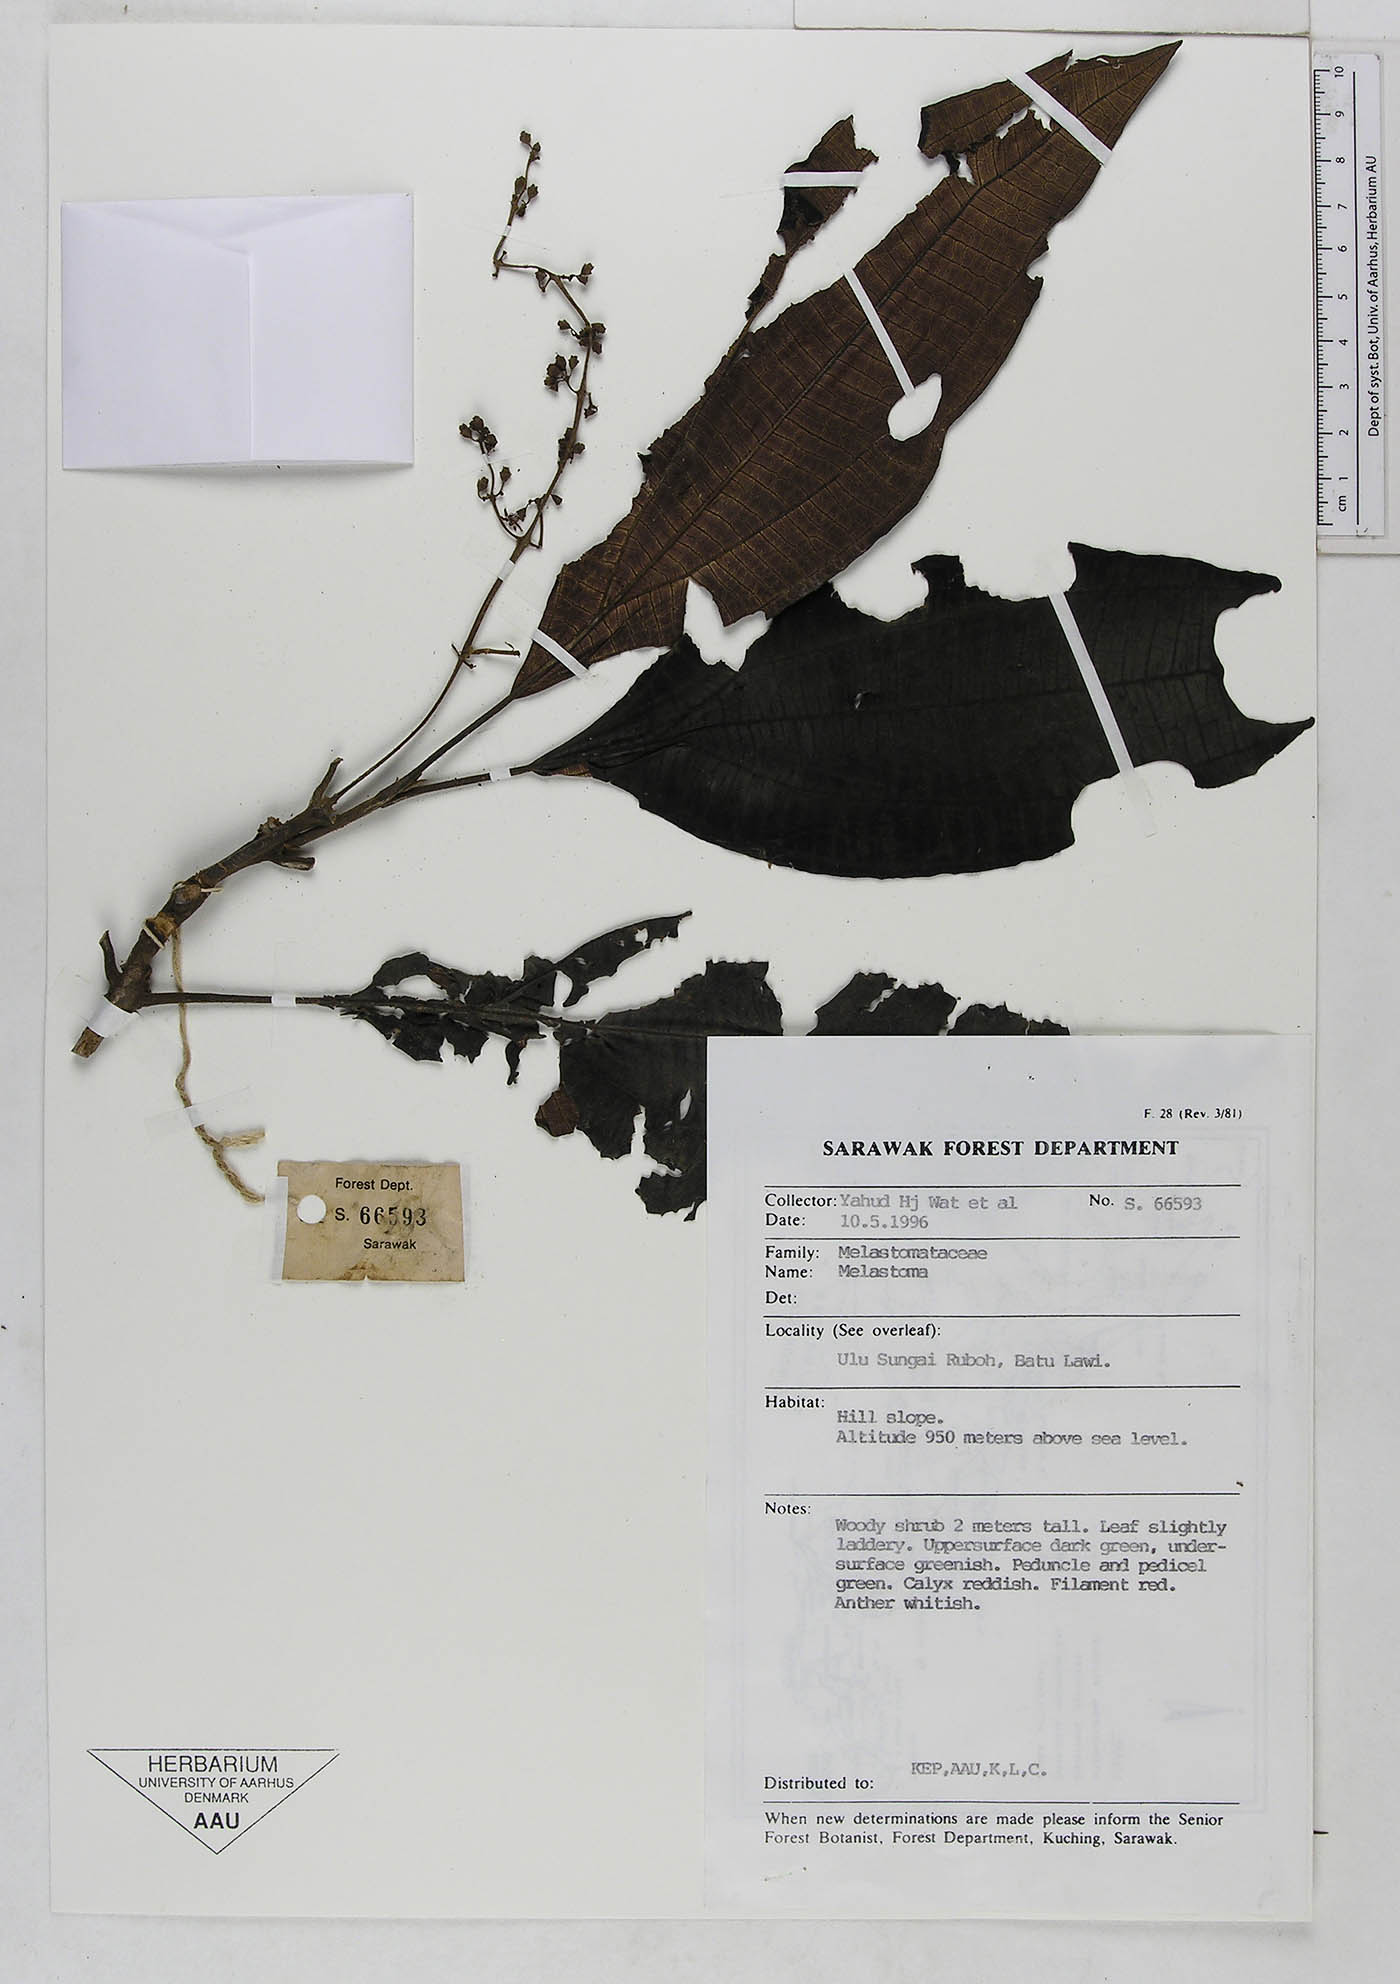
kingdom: Plantae
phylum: Tracheophyta
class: Magnoliopsida
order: Myrtales
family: Melastomataceae
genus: Melastoma
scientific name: Melastoma
